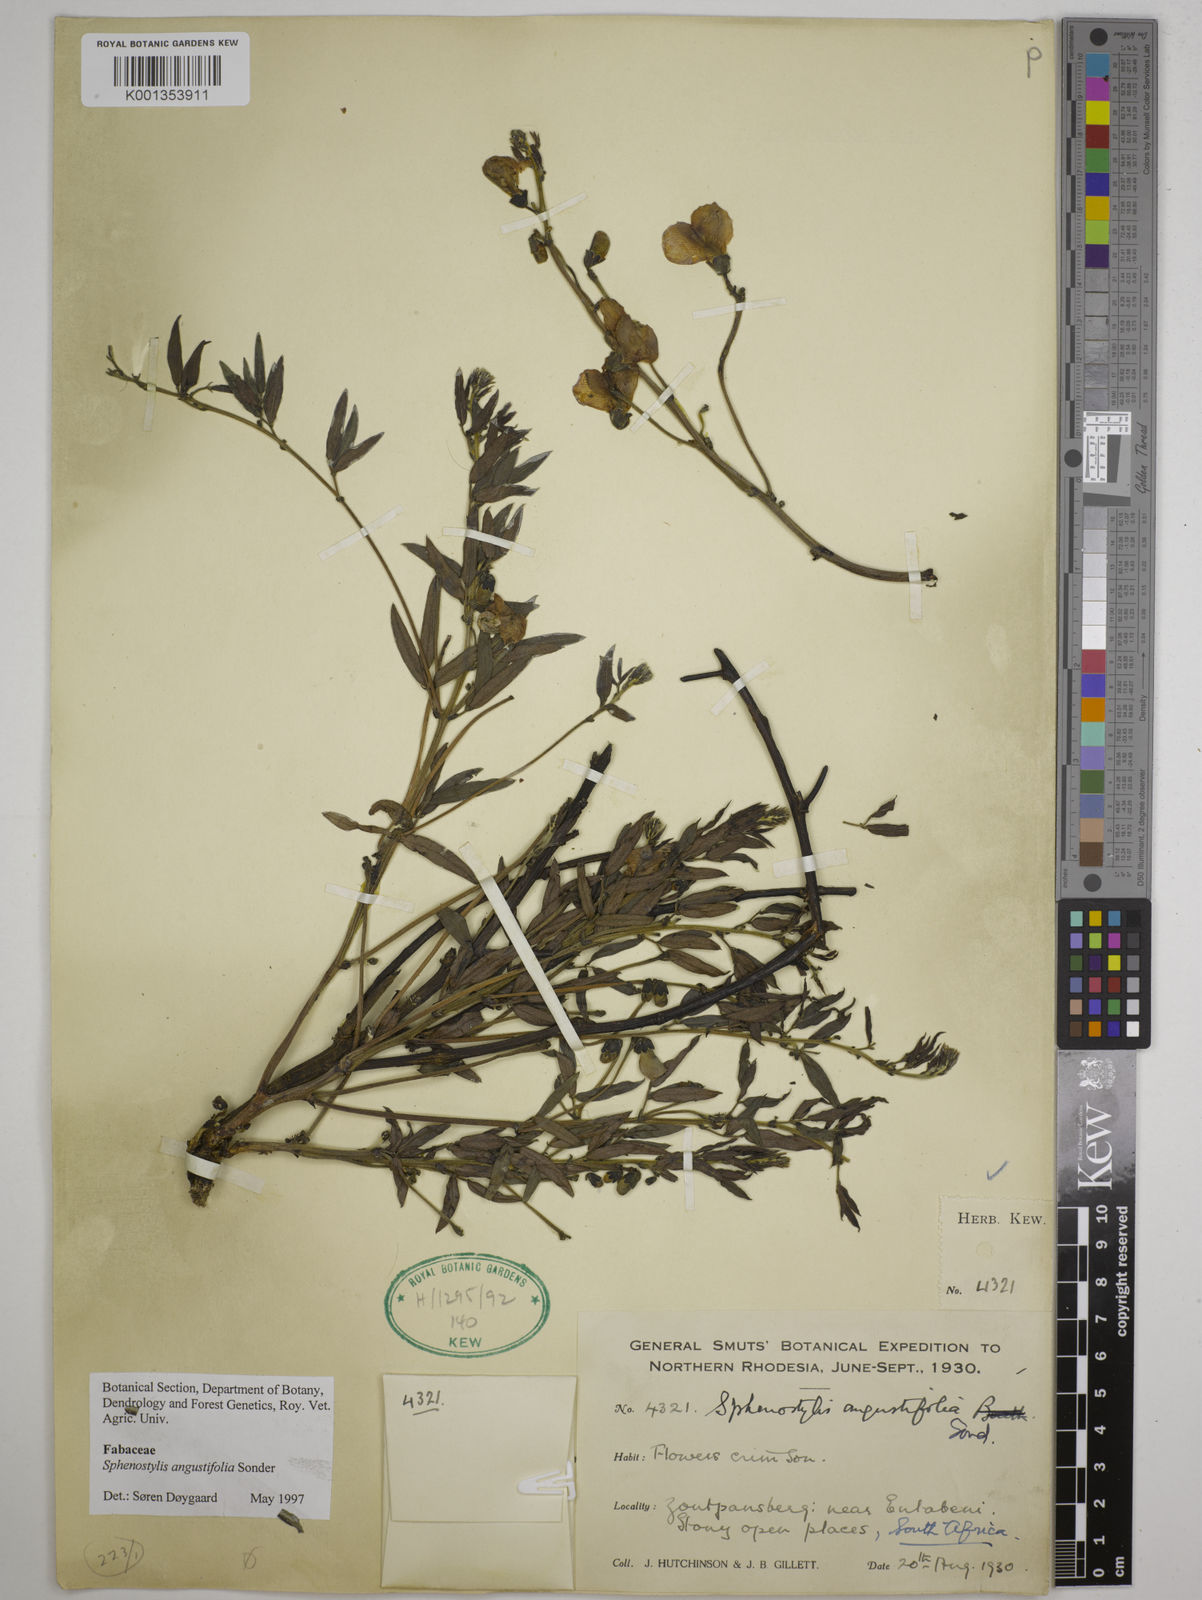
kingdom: Plantae
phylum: Tracheophyta
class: Magnoliopsida
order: Fabales
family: Fabaceae
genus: Sphenostylis
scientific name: Sphenostylis angustifolia
